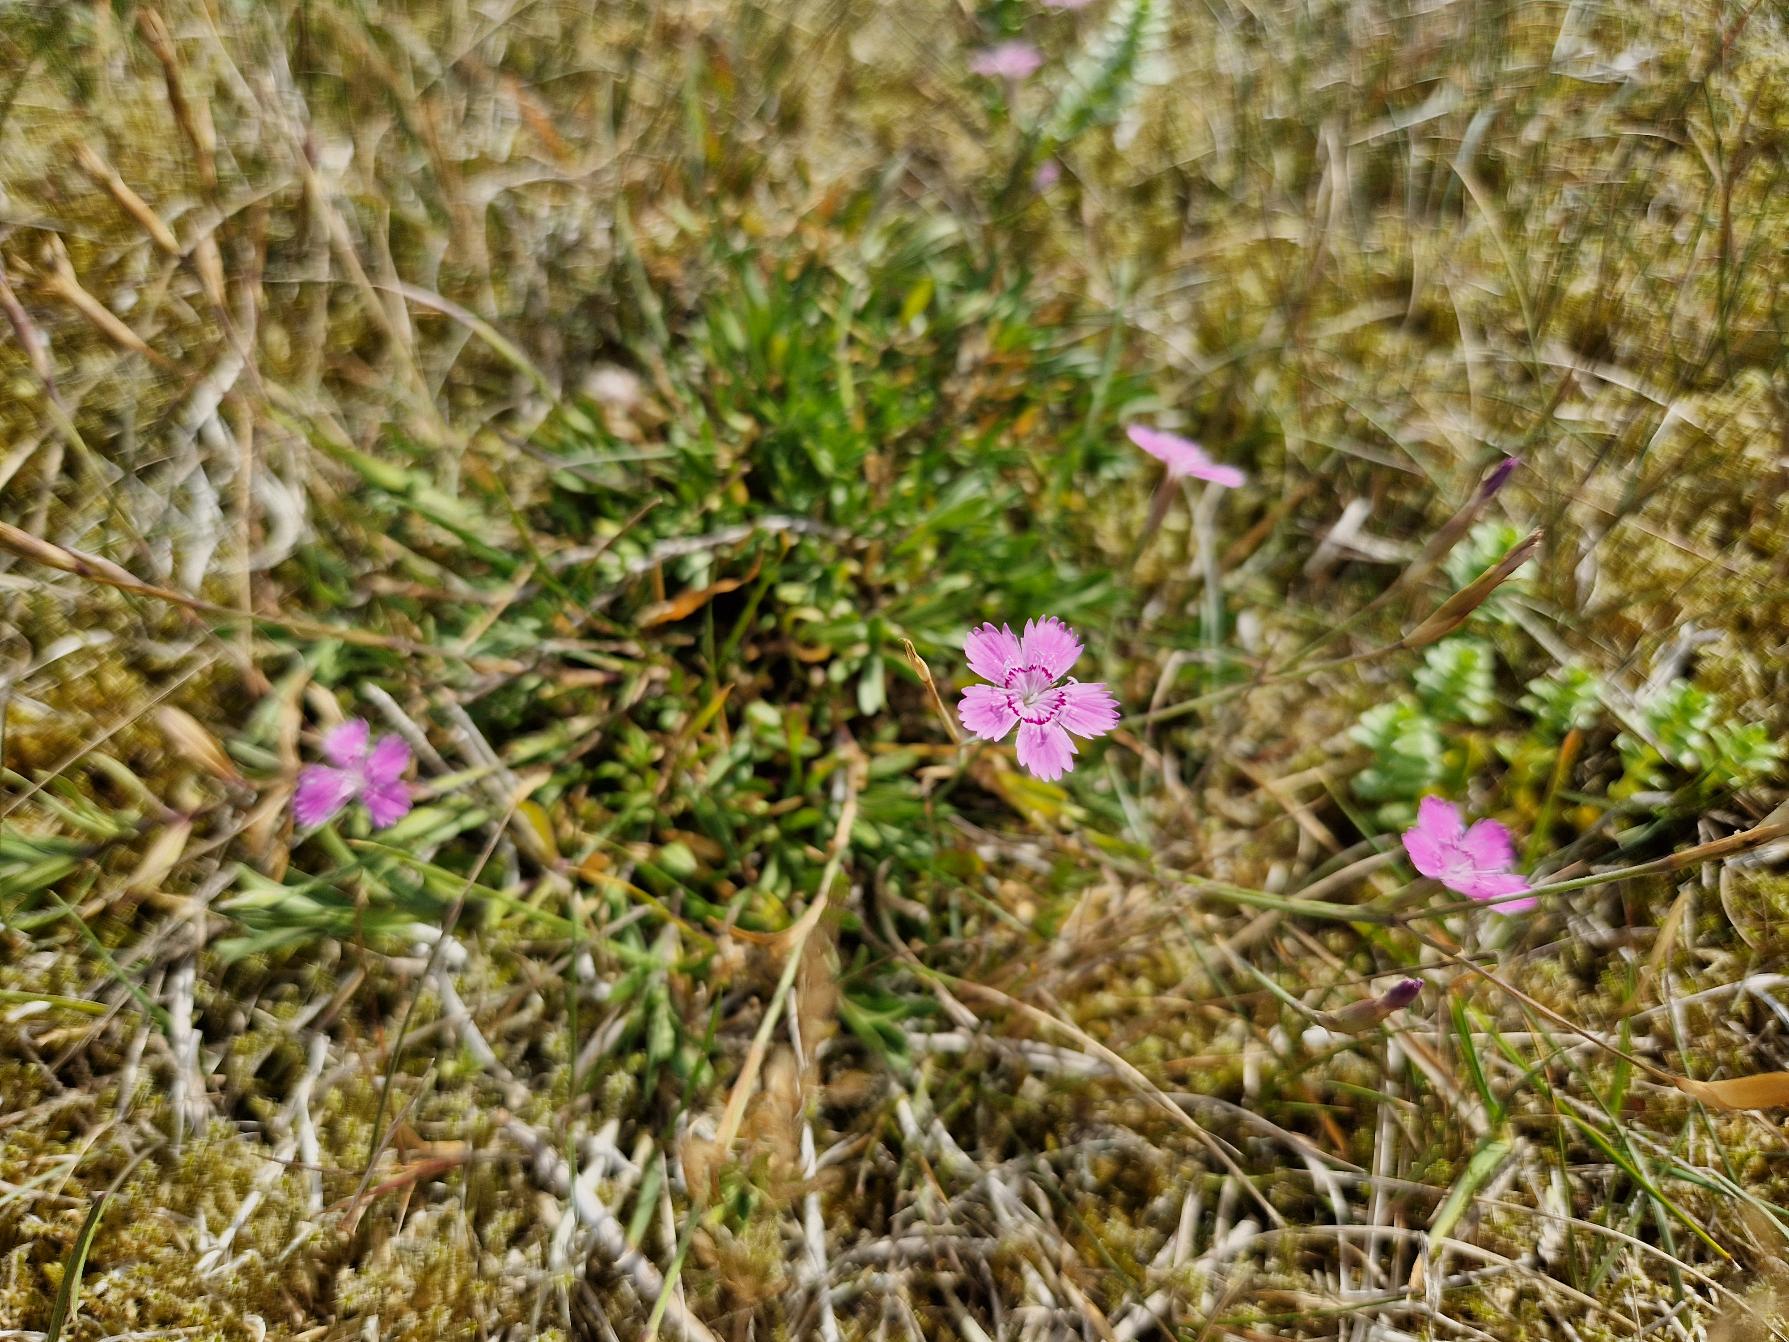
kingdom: Plantae
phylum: Tracheophyta
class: Magnoliopsida
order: Caryophyllales
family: Caryophyllaceae
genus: Dianthus
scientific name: Dianthus deltoides
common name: Bakke-nellike
